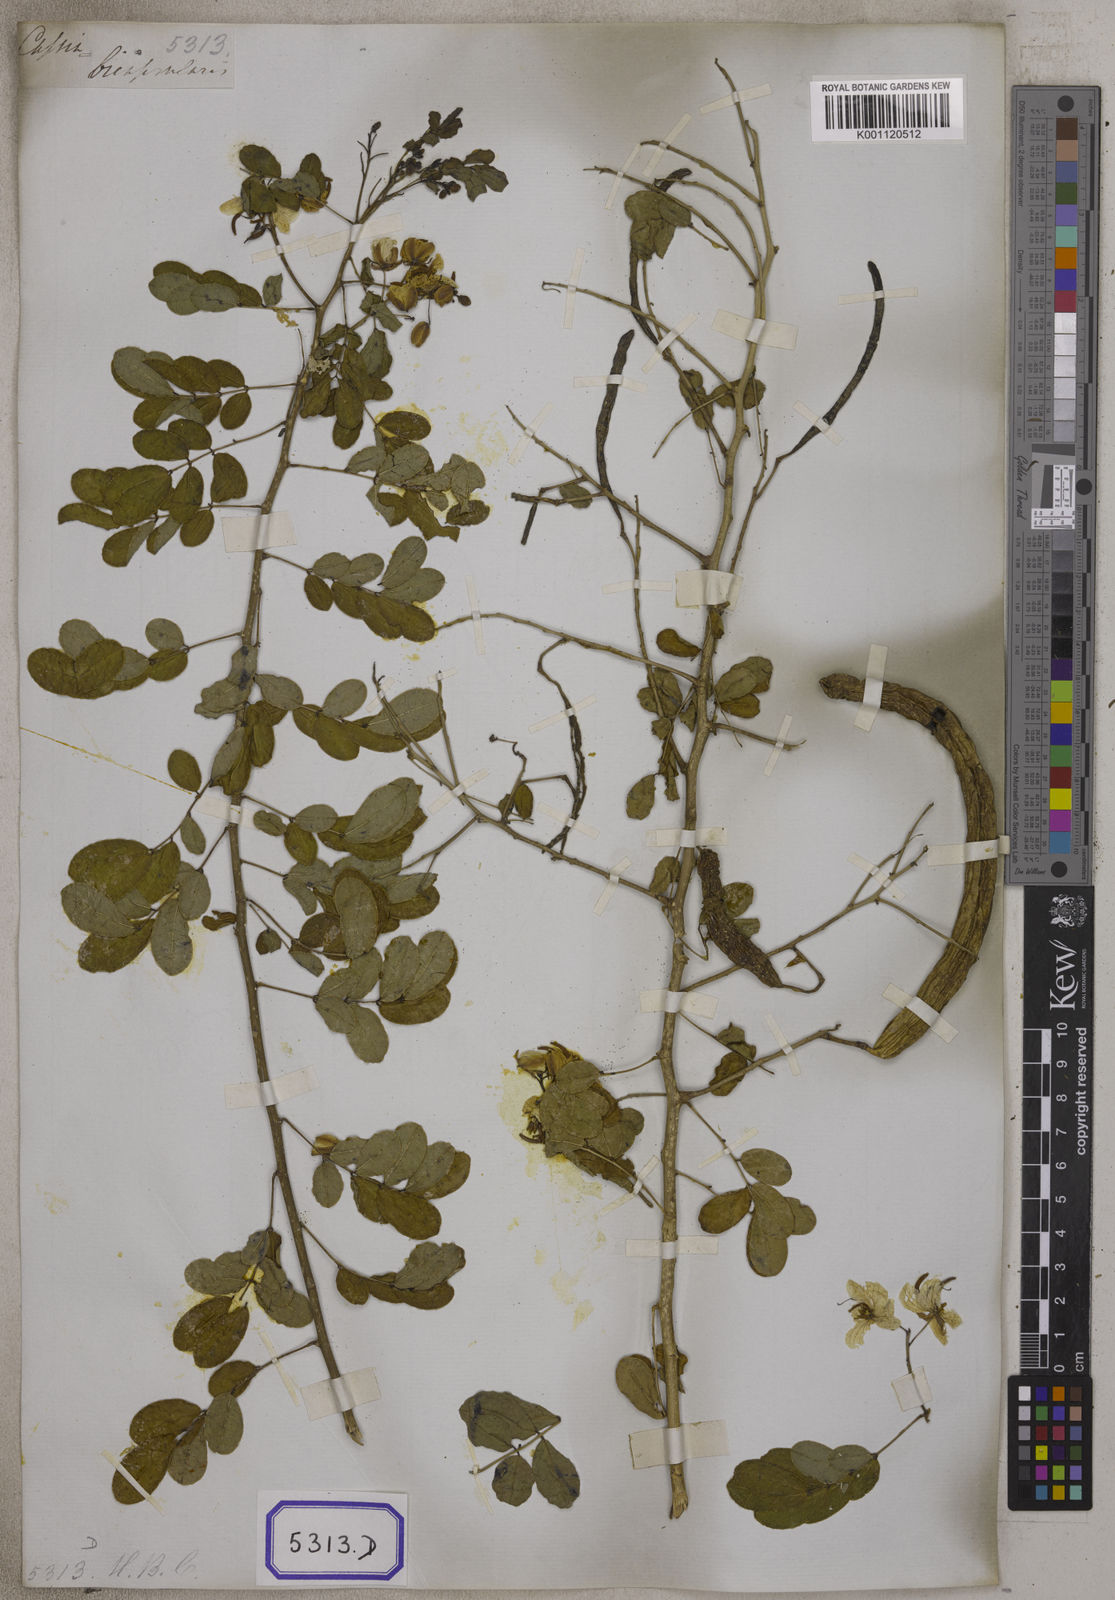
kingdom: Plantae
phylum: Tracheophyta
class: Magnoliopsida
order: Fabales
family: Fabaceae
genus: Senna
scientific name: Senna bicapsularis
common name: Christmasbush
